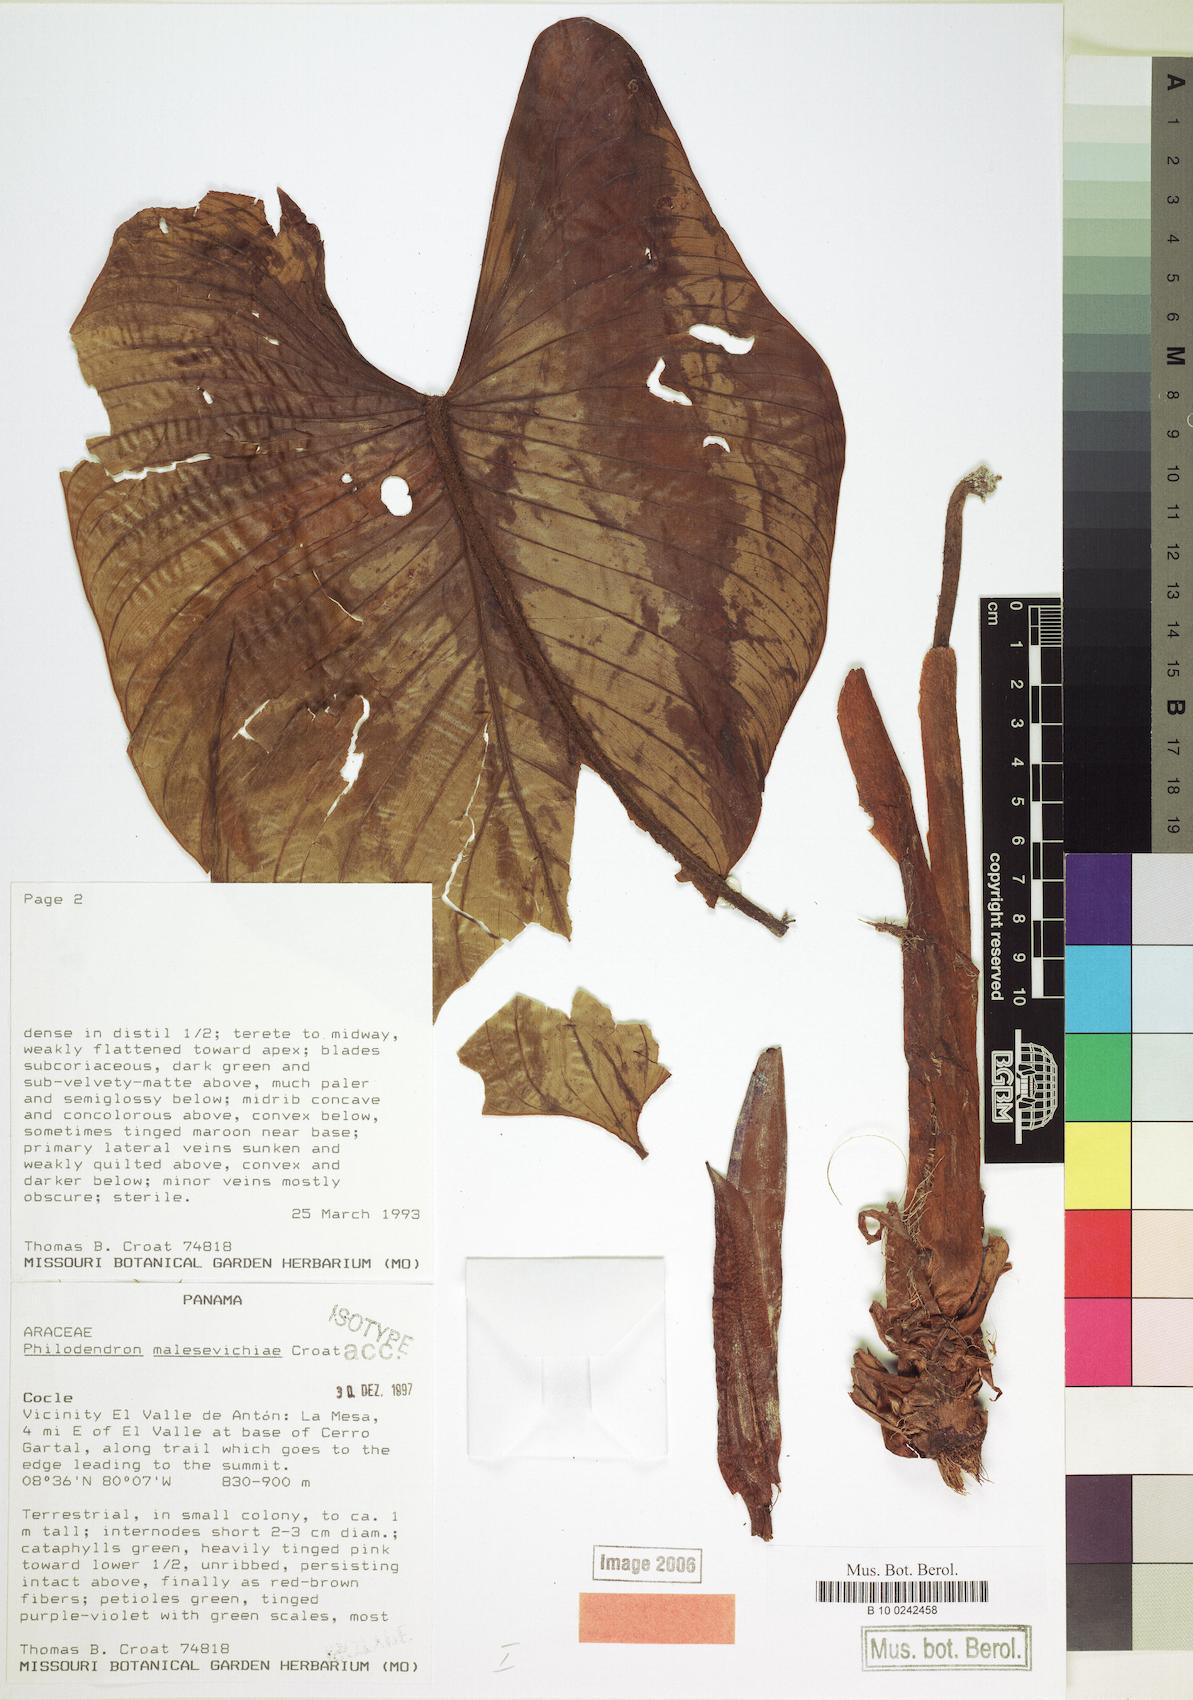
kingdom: Plantae
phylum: Tracheophyta
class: Liliopsida
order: Alismatales
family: Araceae
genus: Philodendron
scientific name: Philodendron malesevichiae
